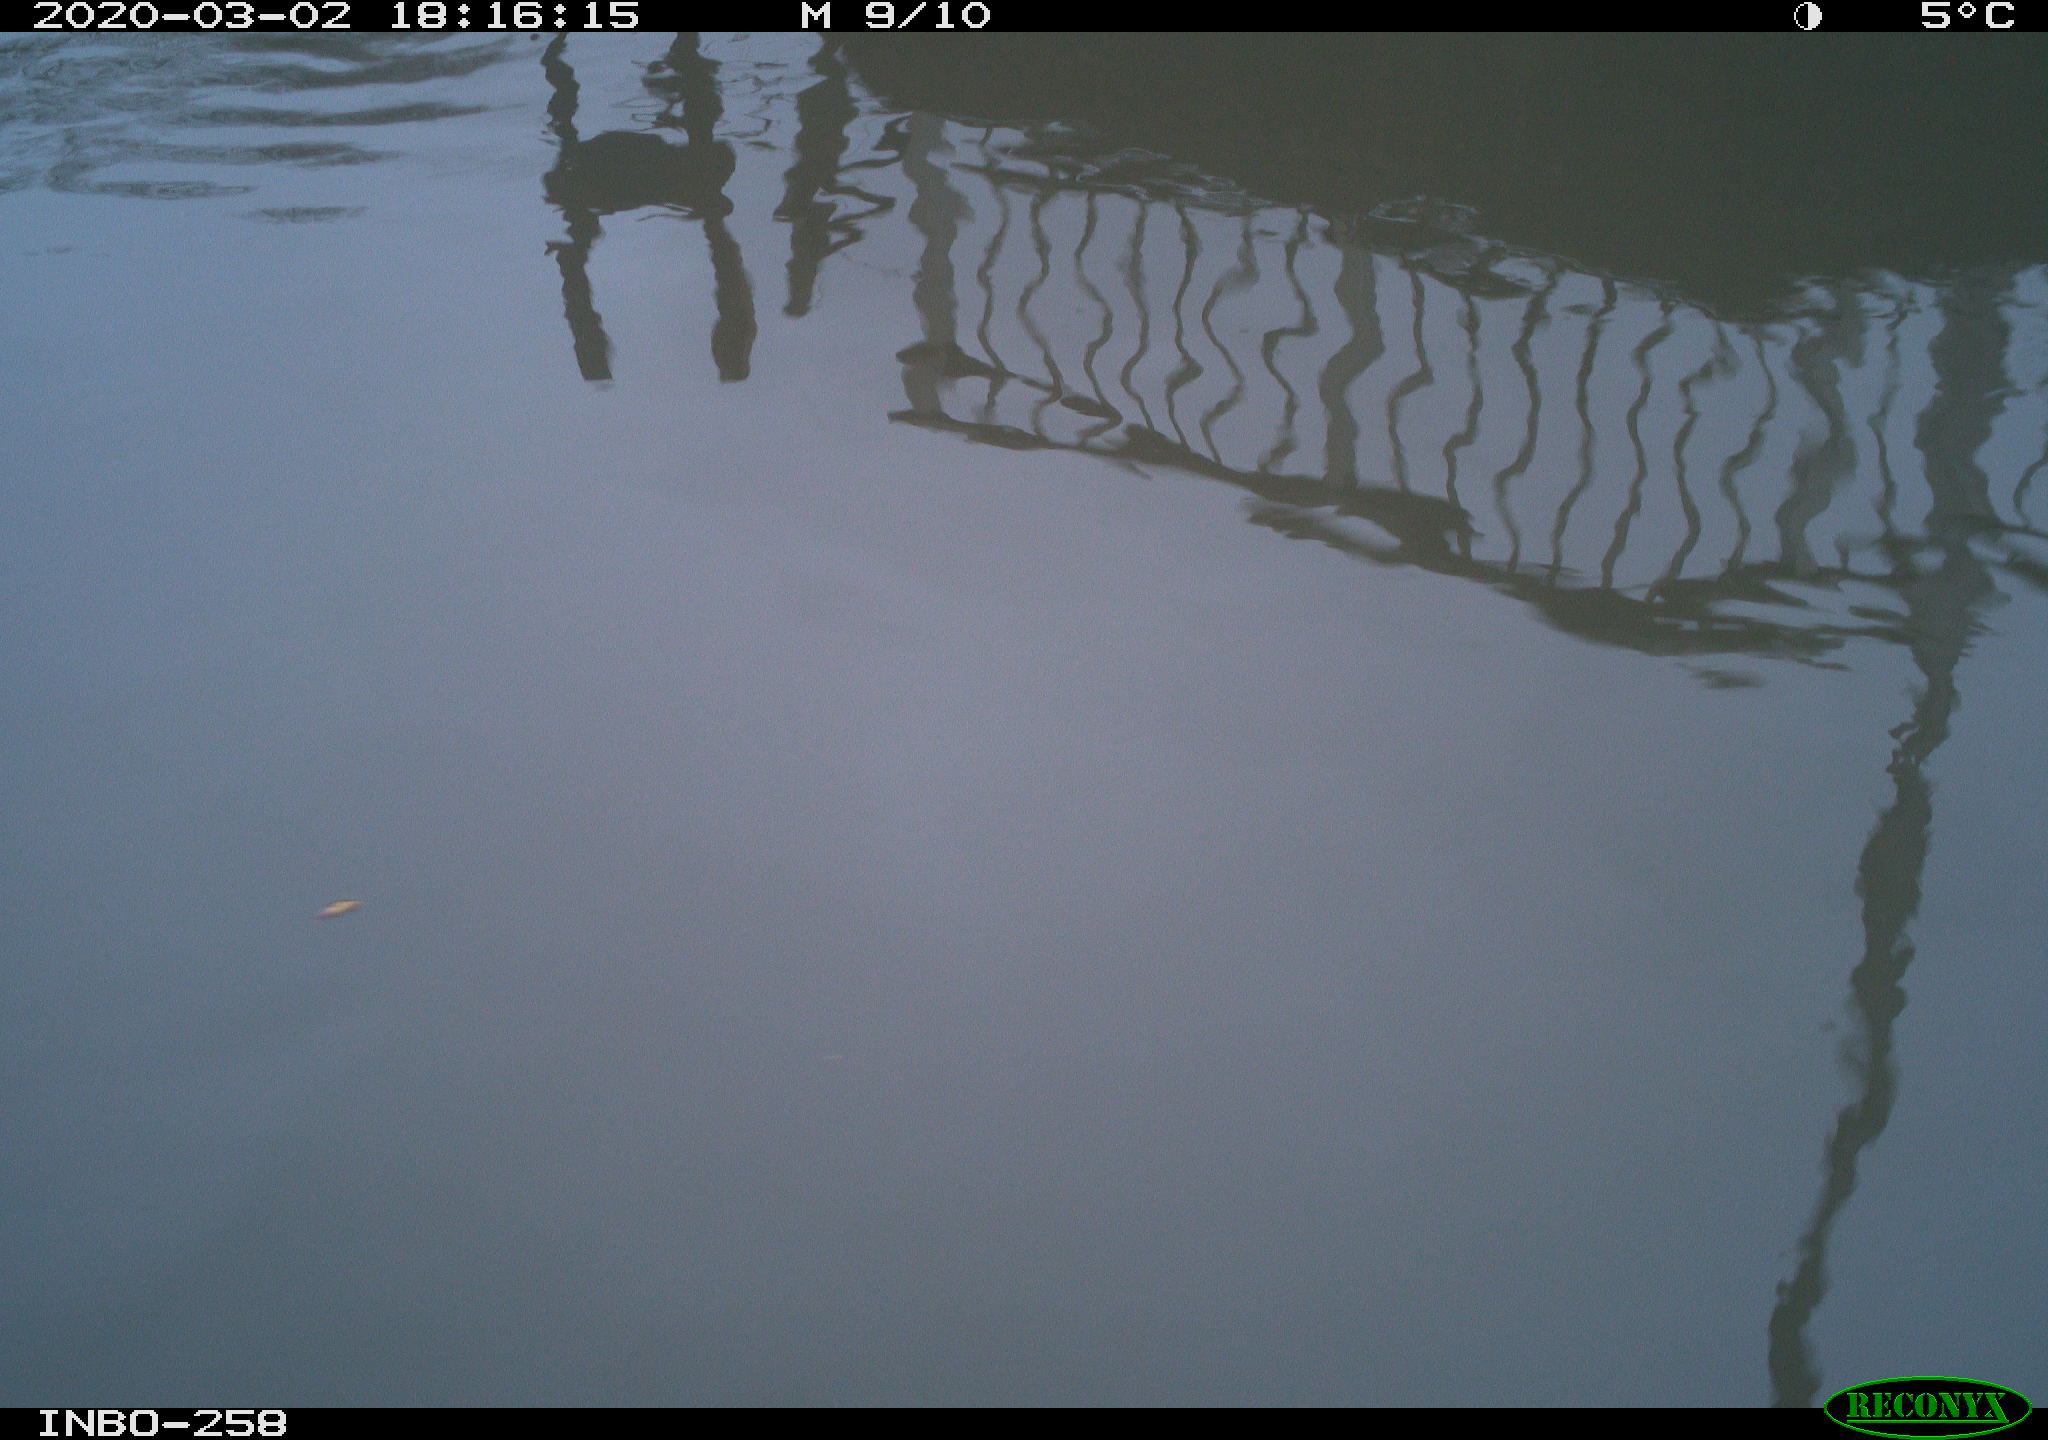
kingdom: Animalia
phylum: Chordata
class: Aves
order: Gruiformes
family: Rallidae
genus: Gallinula
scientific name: Gallinula chloropus
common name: Common moorhen
